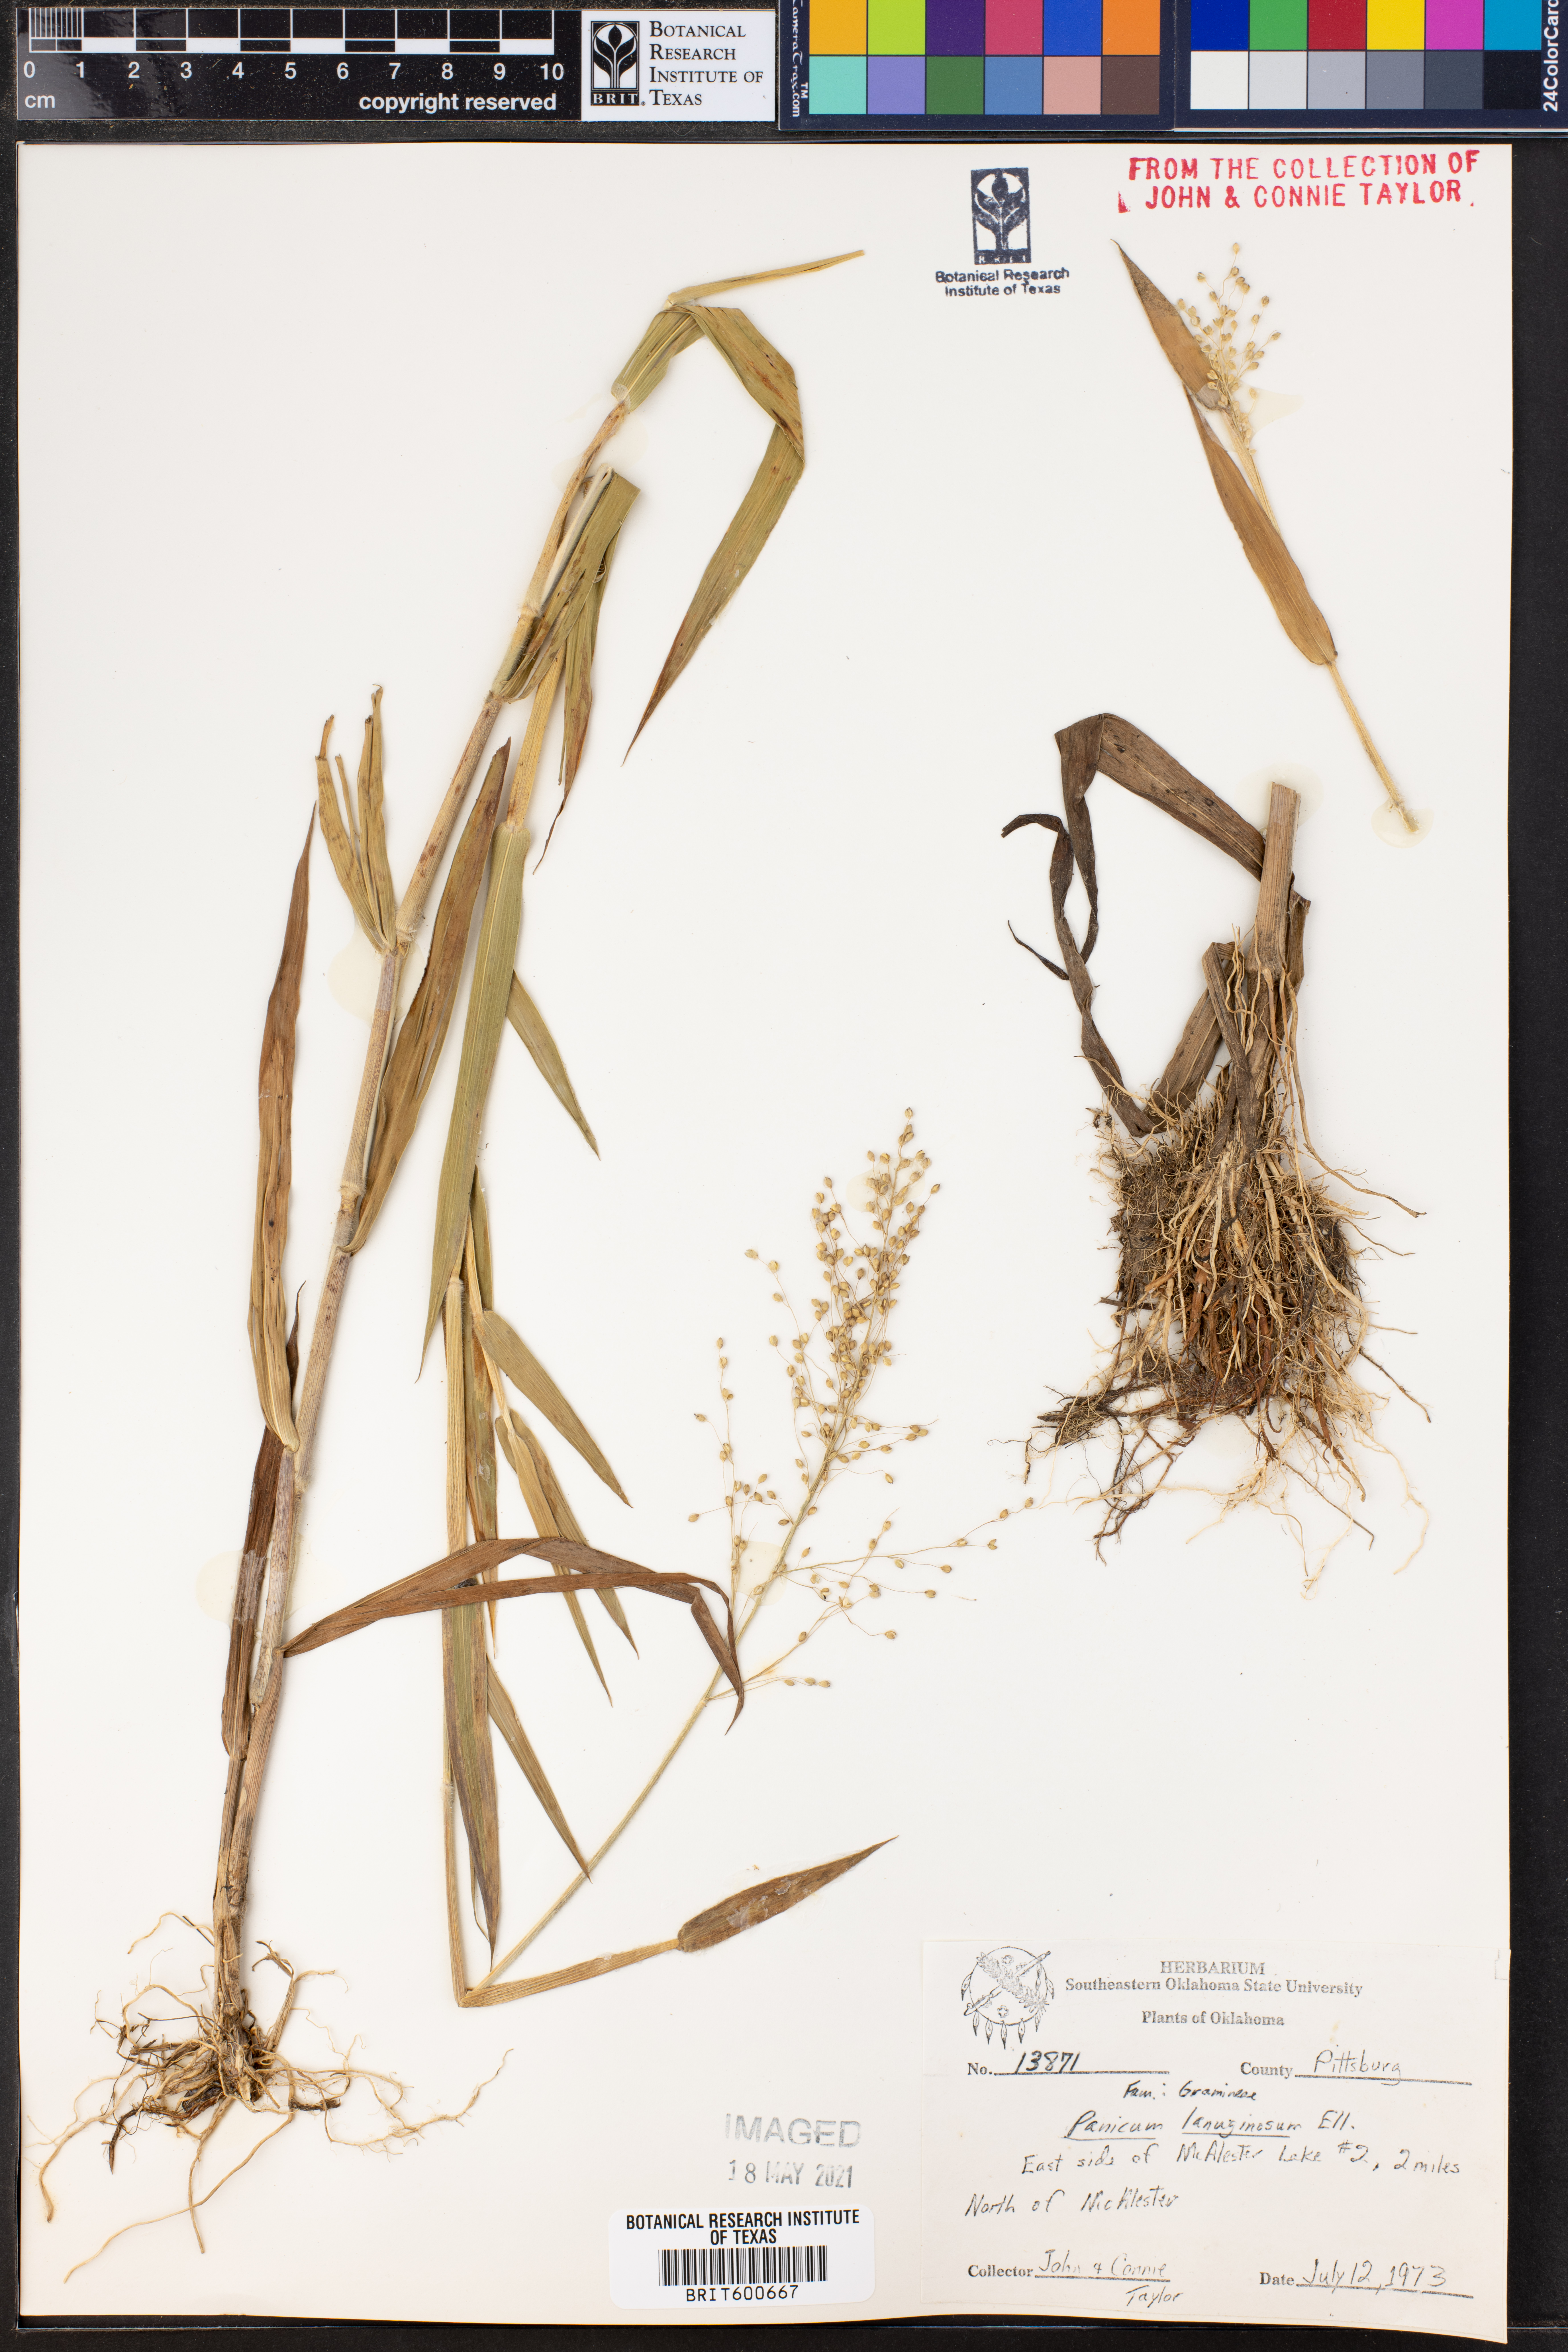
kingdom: Plantae
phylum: Tracheophyta
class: Liliopsida
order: Poales
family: Poaceae
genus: Dichanthelium
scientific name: Dichanthelium lanuginosum
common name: Woolly panicgrass
